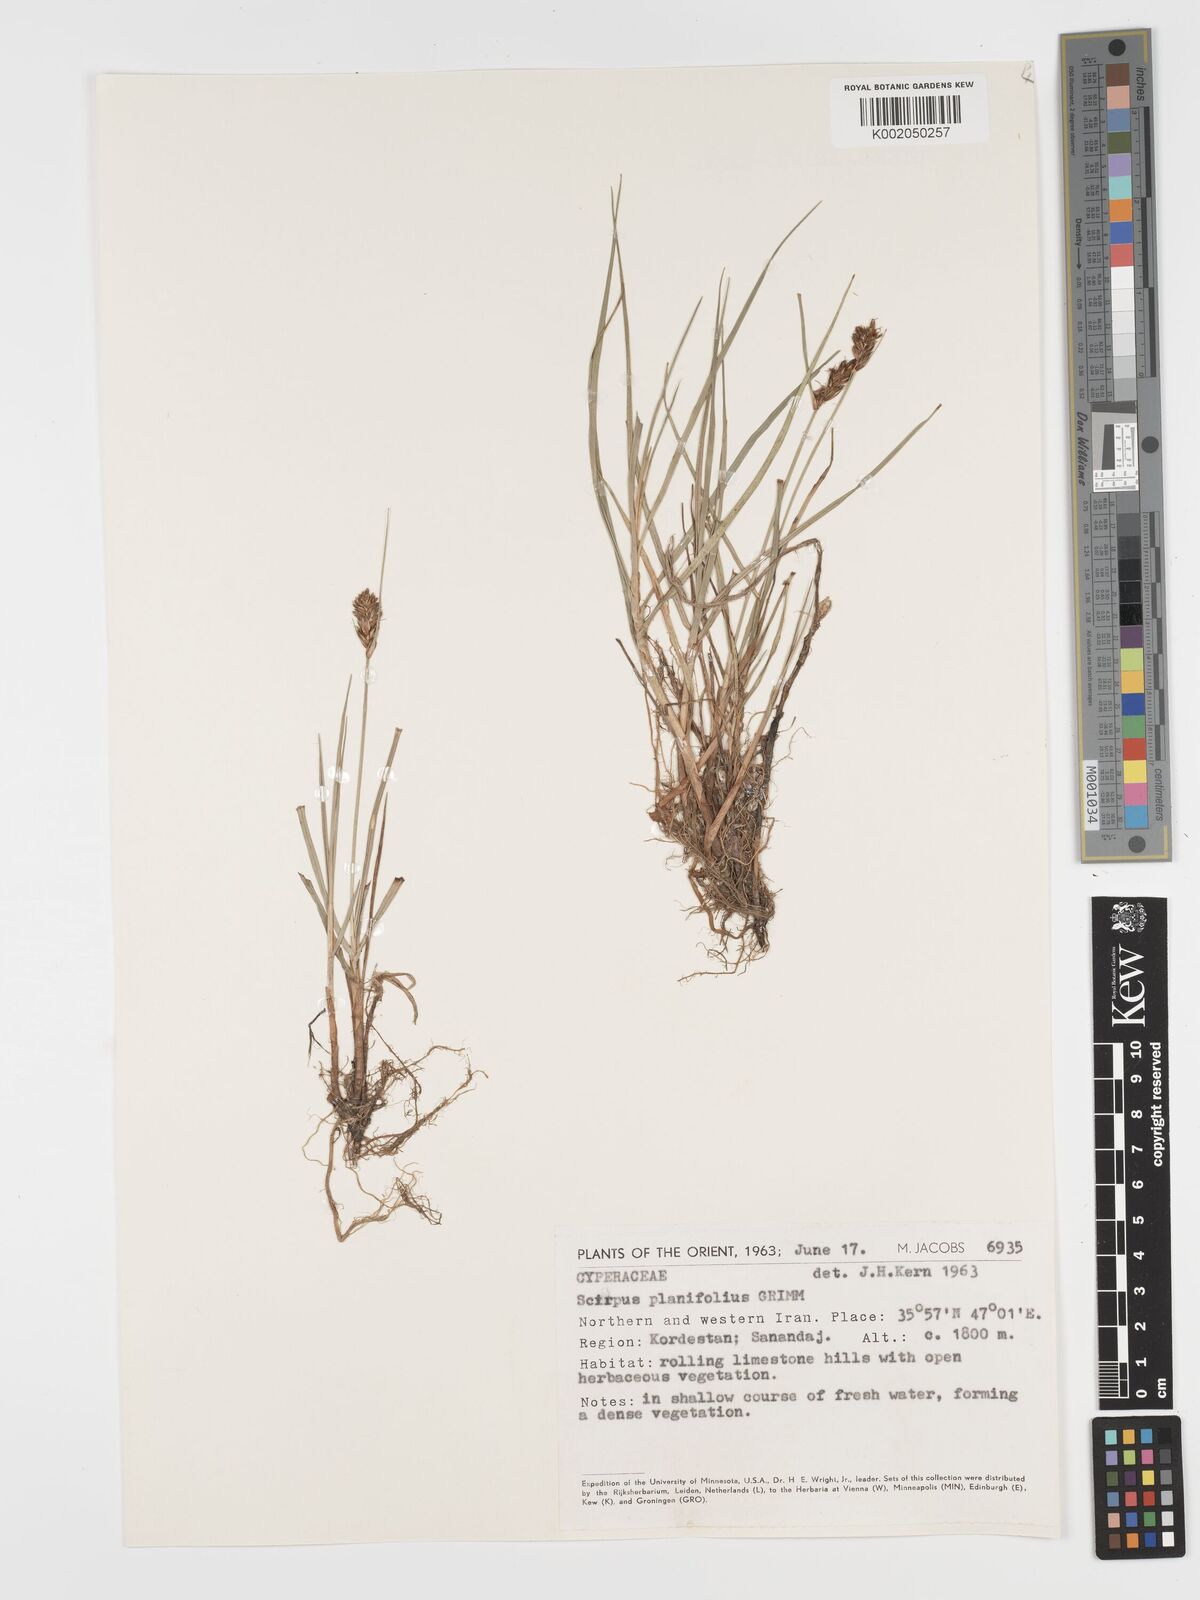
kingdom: Plantae
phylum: Tracheophyta
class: Liliopsida
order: Poales
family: Cyperaceae
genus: Blysmus
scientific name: Blysmus compressus
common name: Flat-sedge
